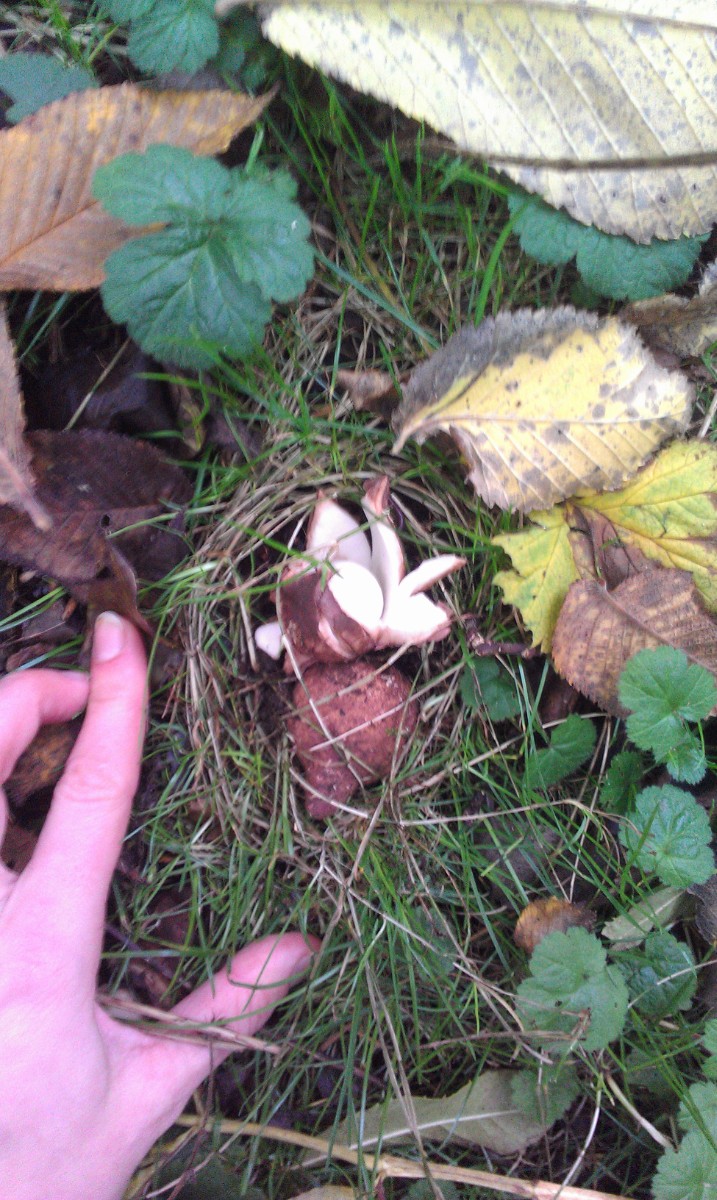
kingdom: Fungi
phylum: Basidiomycota
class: Agaricomycetes
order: Geastrales
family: Geastraceae
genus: Geastrum
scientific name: Geastrum michelianum
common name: kødet stjernebold
